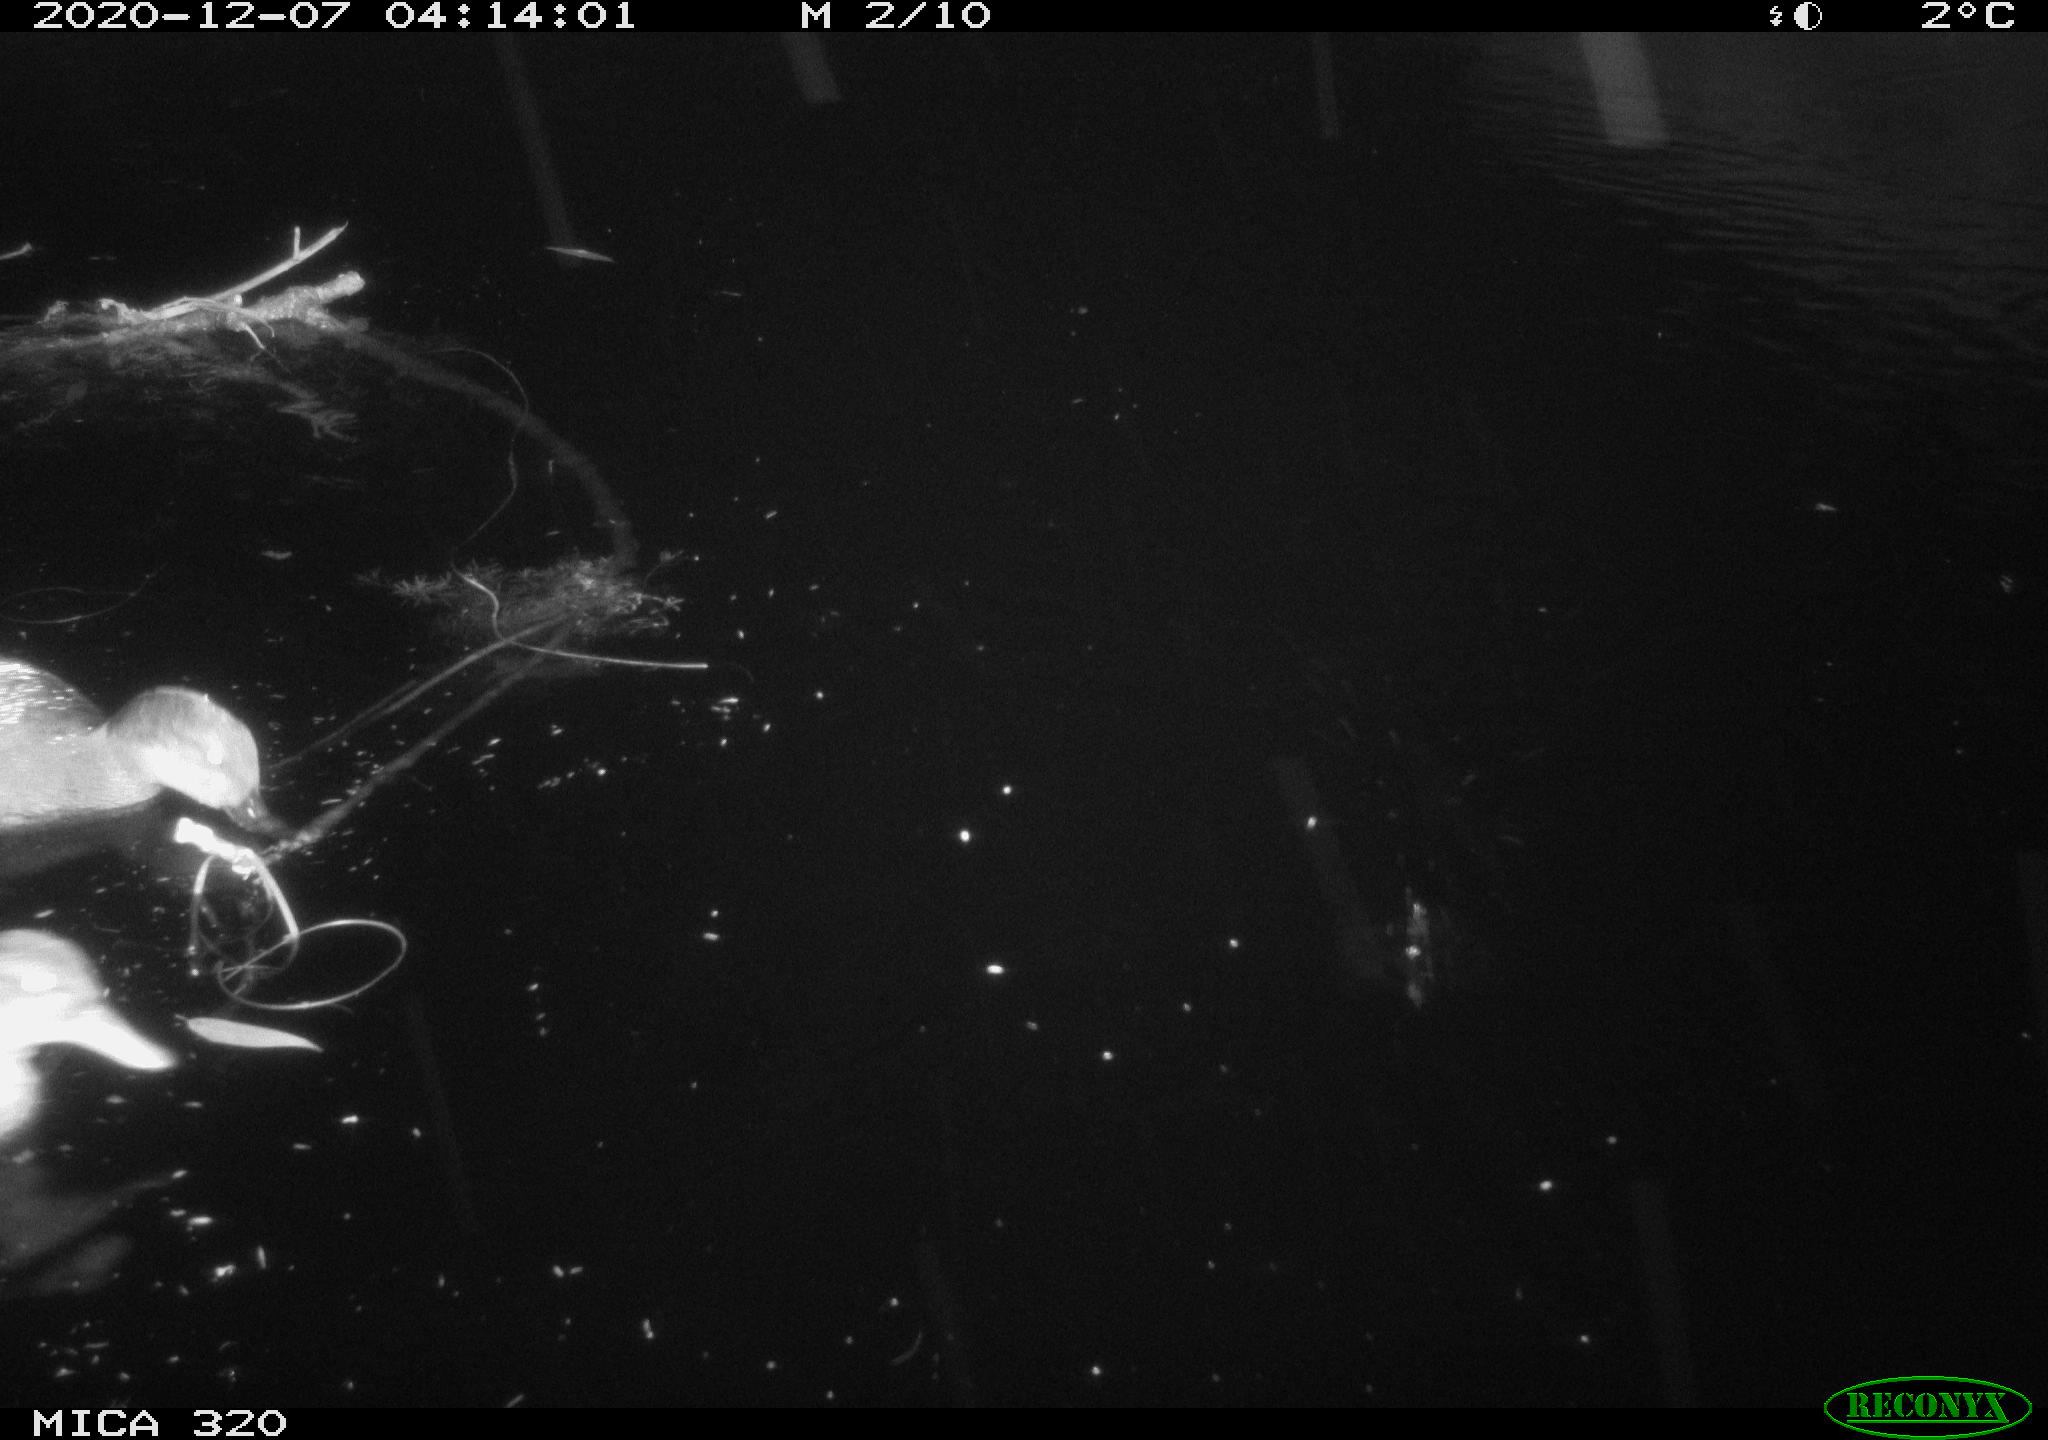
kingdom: Animalia
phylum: Chordata
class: Aves
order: Anseriformes
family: Anatidae
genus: Mareca
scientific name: Mareca strepera
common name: Gadwall
